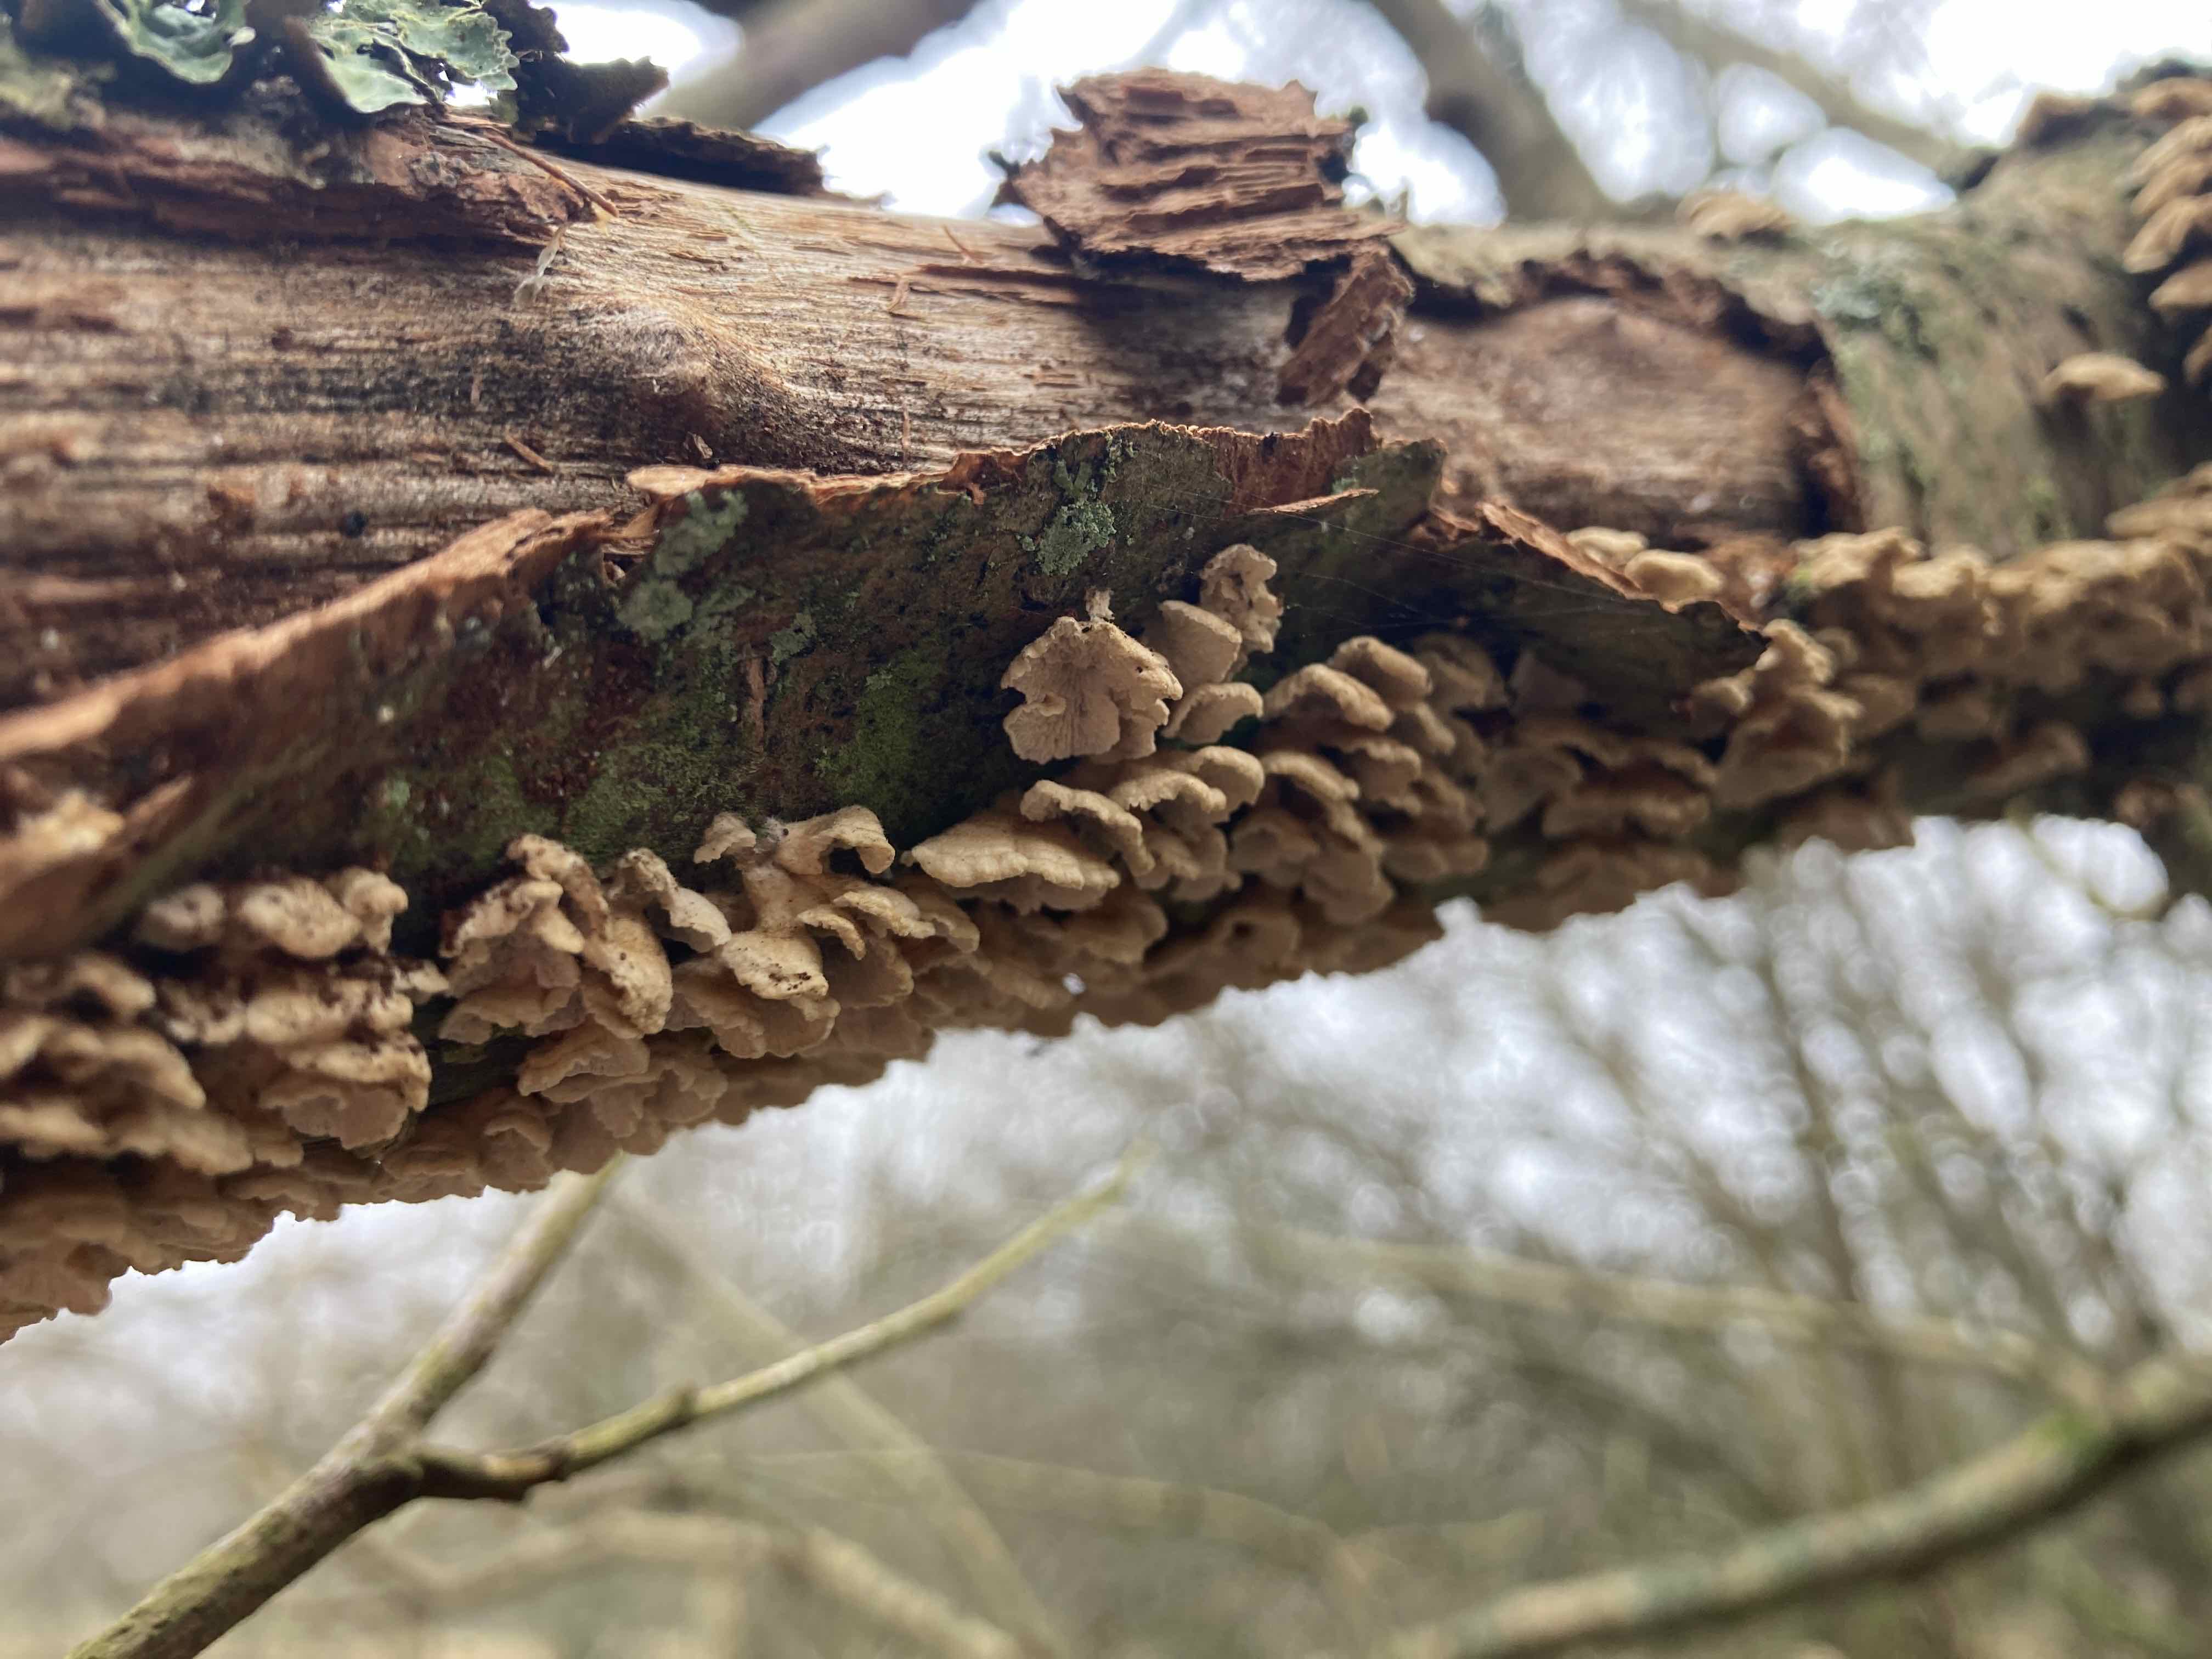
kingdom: Fungi
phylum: Basidiomycota
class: Agaricomycetes
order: Amylocorticiales
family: Amylocorticiaceae
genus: Plicaturopsis
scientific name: Plicaturopsis crispa
